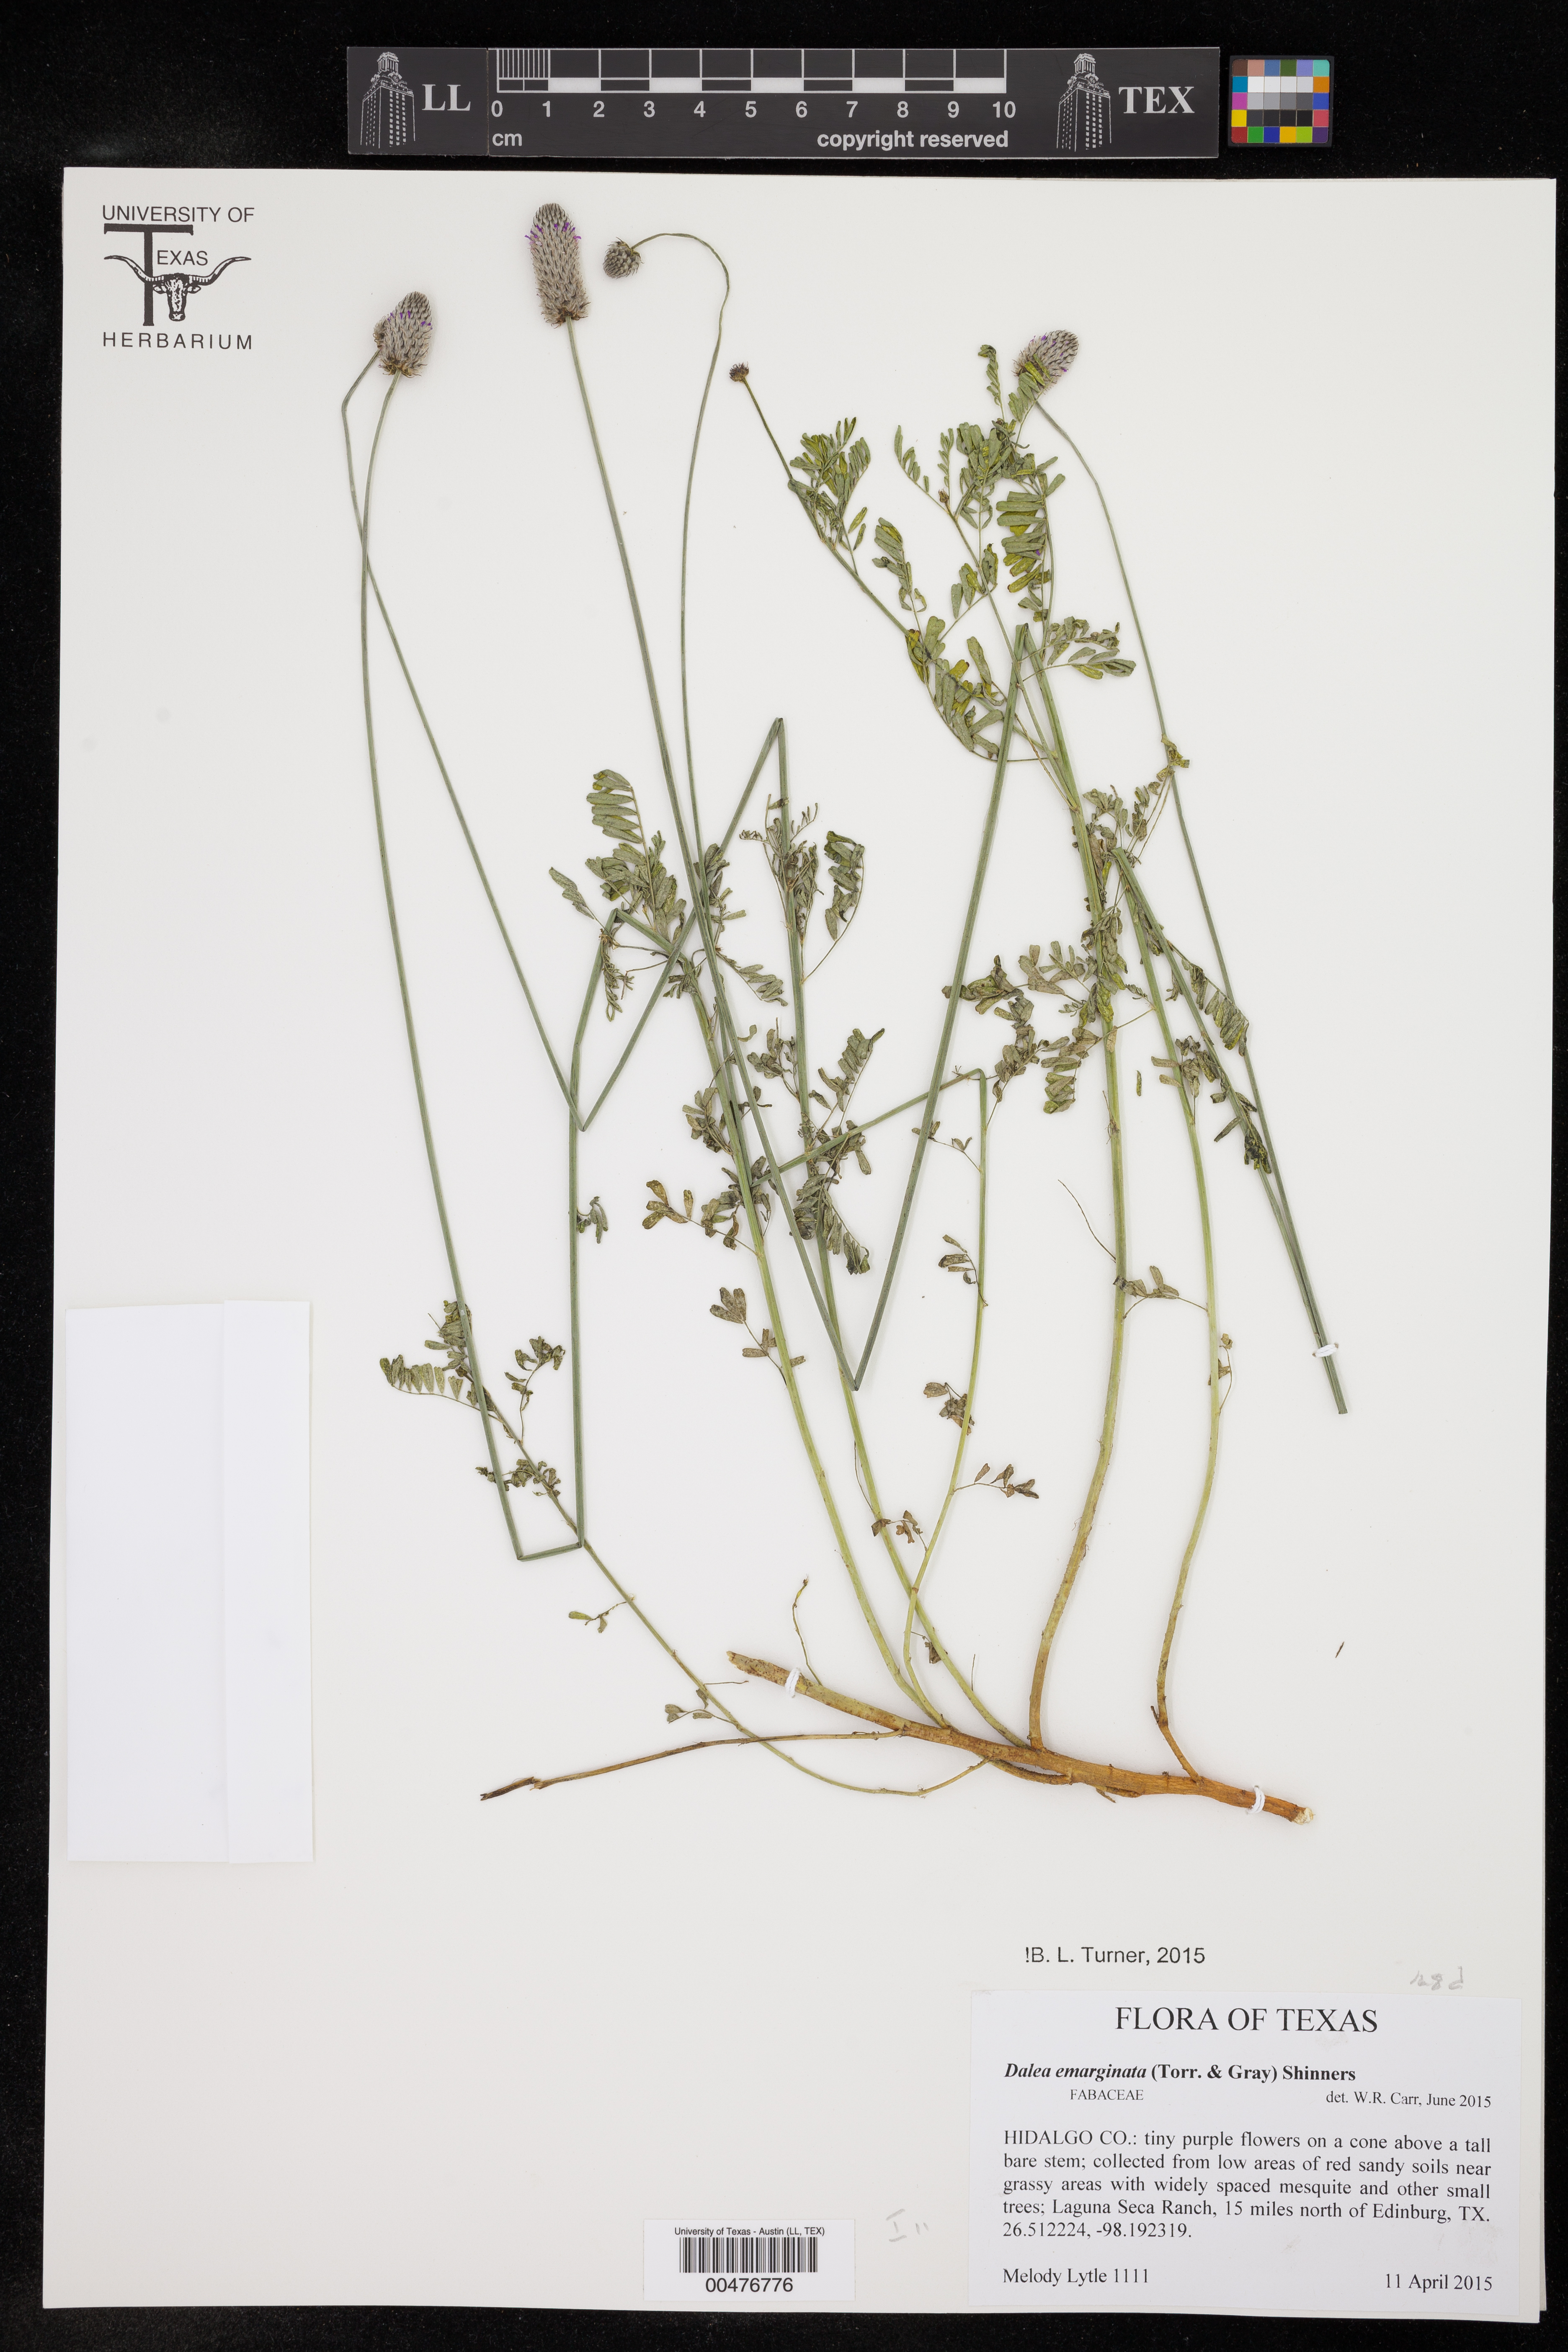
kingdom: Plantae
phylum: Tracheophyta
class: Magnoliopsida
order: Fabales
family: Fabaceae
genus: Dalea
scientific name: Dalea emarginata
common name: Wedgeleaf prairie clover
